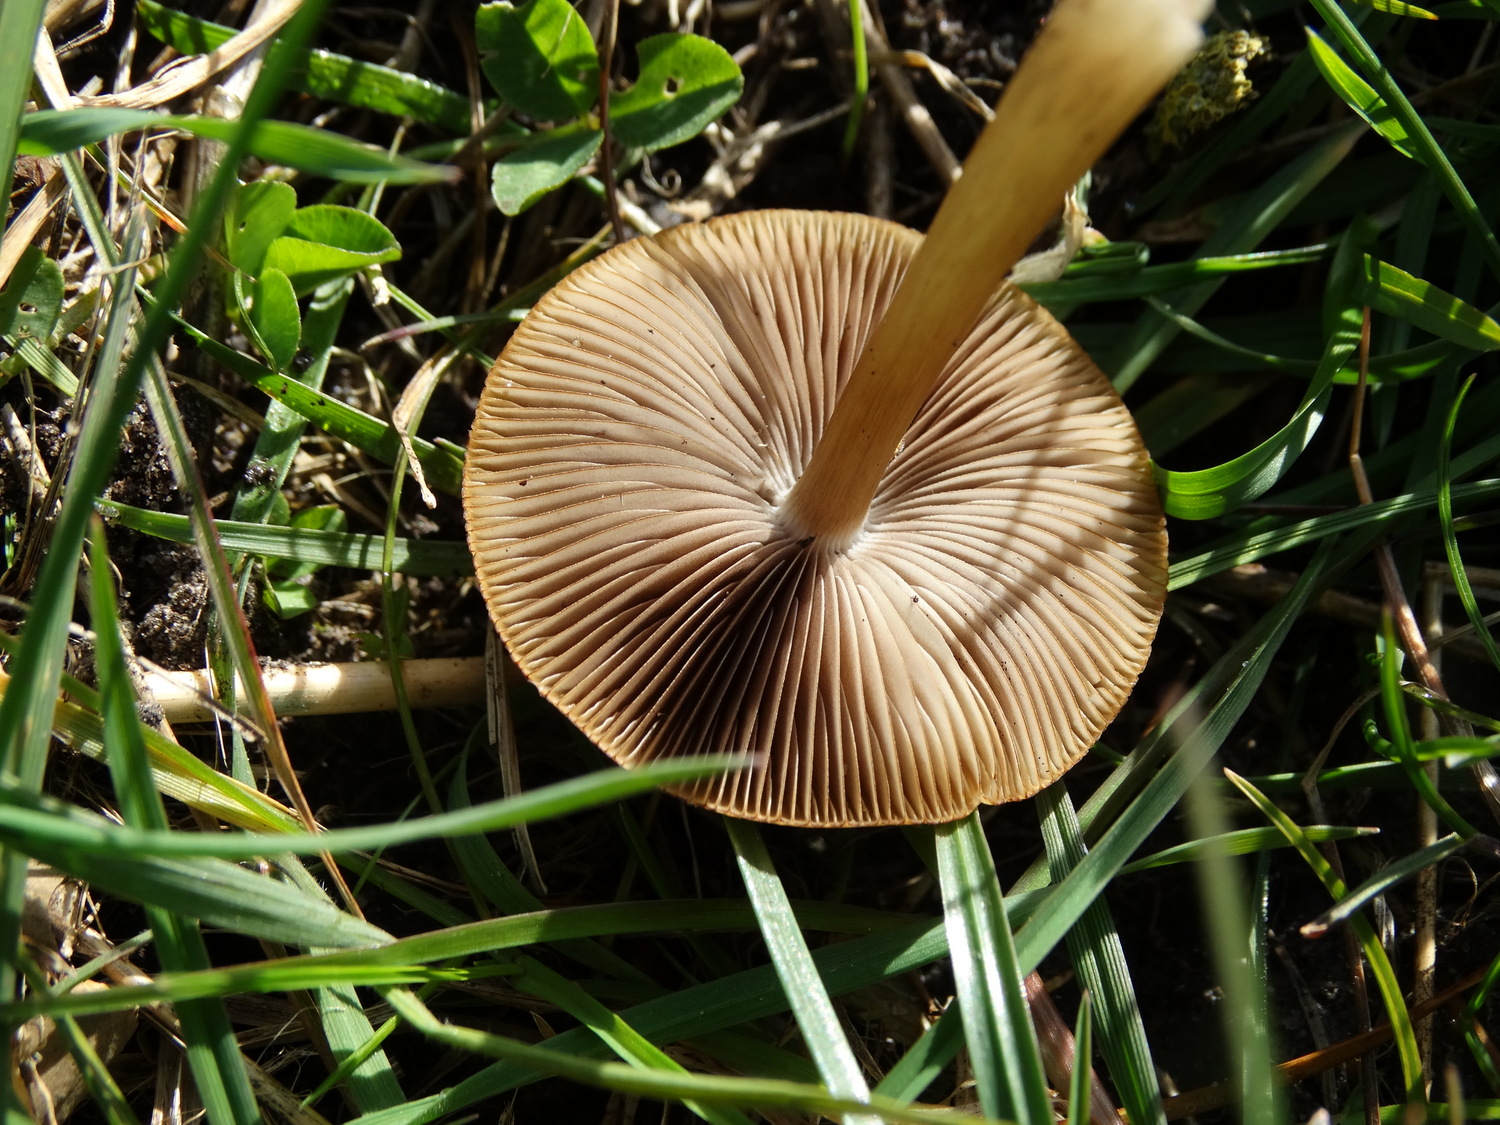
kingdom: Fungi
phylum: Basidiomycota
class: Agaricomycetes
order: Agaricales
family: Psathyrellaceae
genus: Psathyrella
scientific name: Psathyrella
